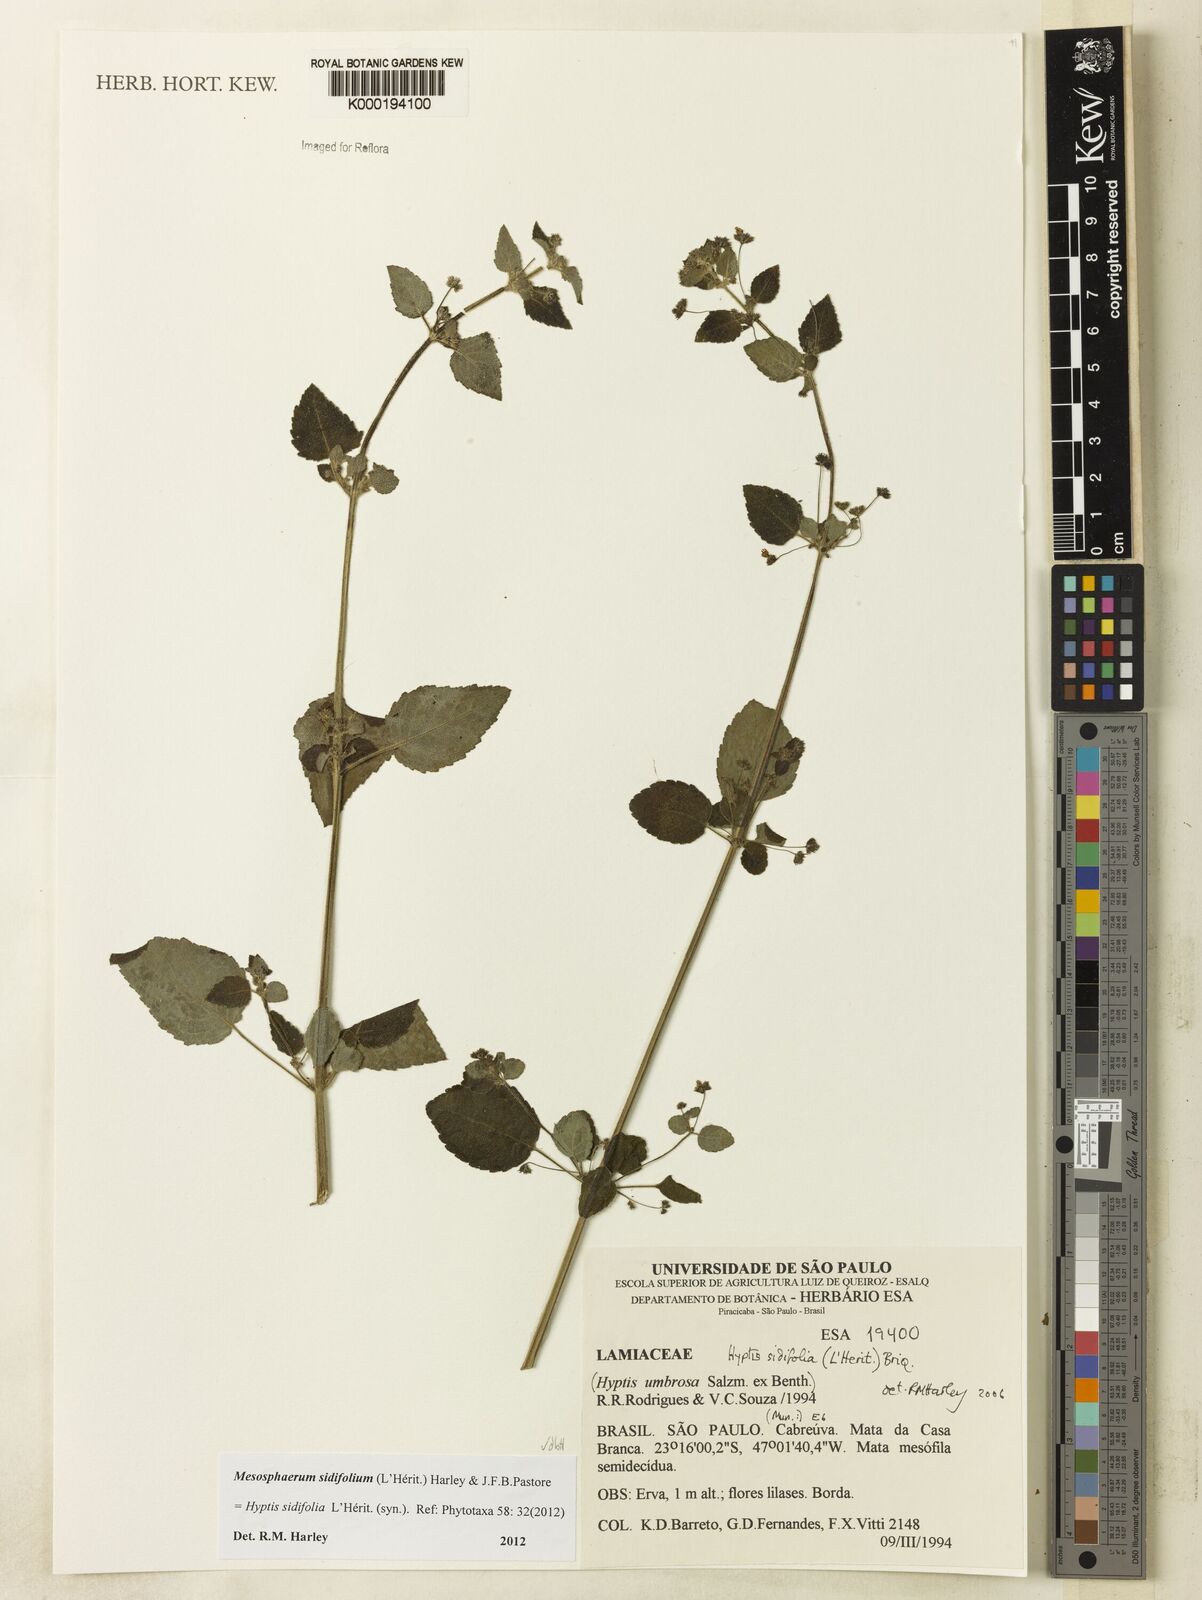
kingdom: Plantae
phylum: Tracheophyta
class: Magnoliopsida
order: Lamiales
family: Lamiaceae
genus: Mesosphaerum
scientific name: Mesosphaerum sidifolium
